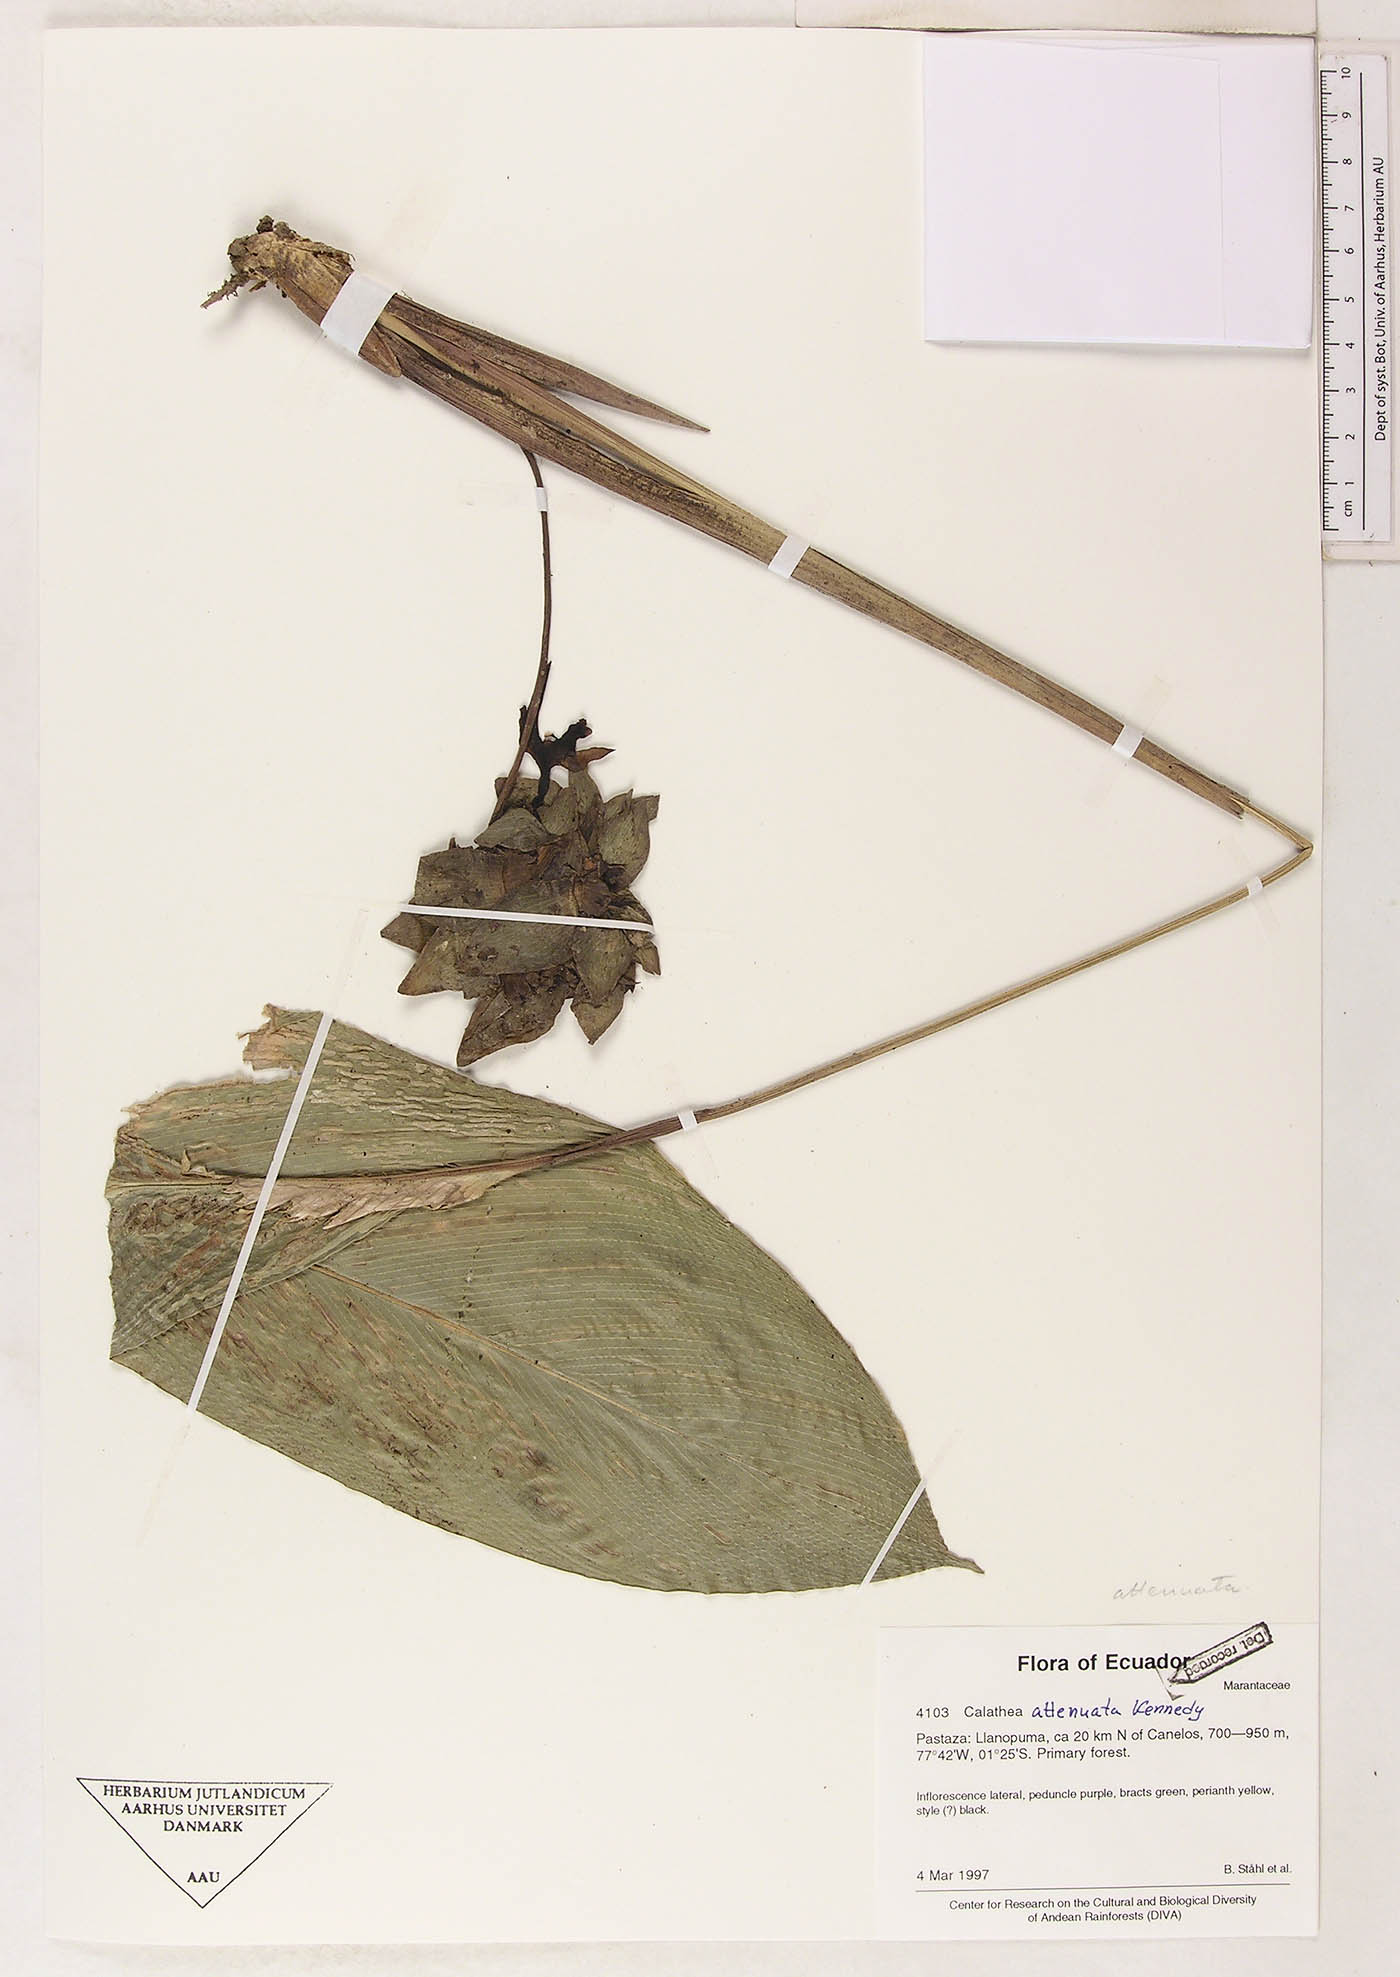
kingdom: Plantae
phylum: Tracheophyta
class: Liliopsida
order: Zingiberales
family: Marantaceae
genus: Goeppertia
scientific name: Goeppertia attenuata
